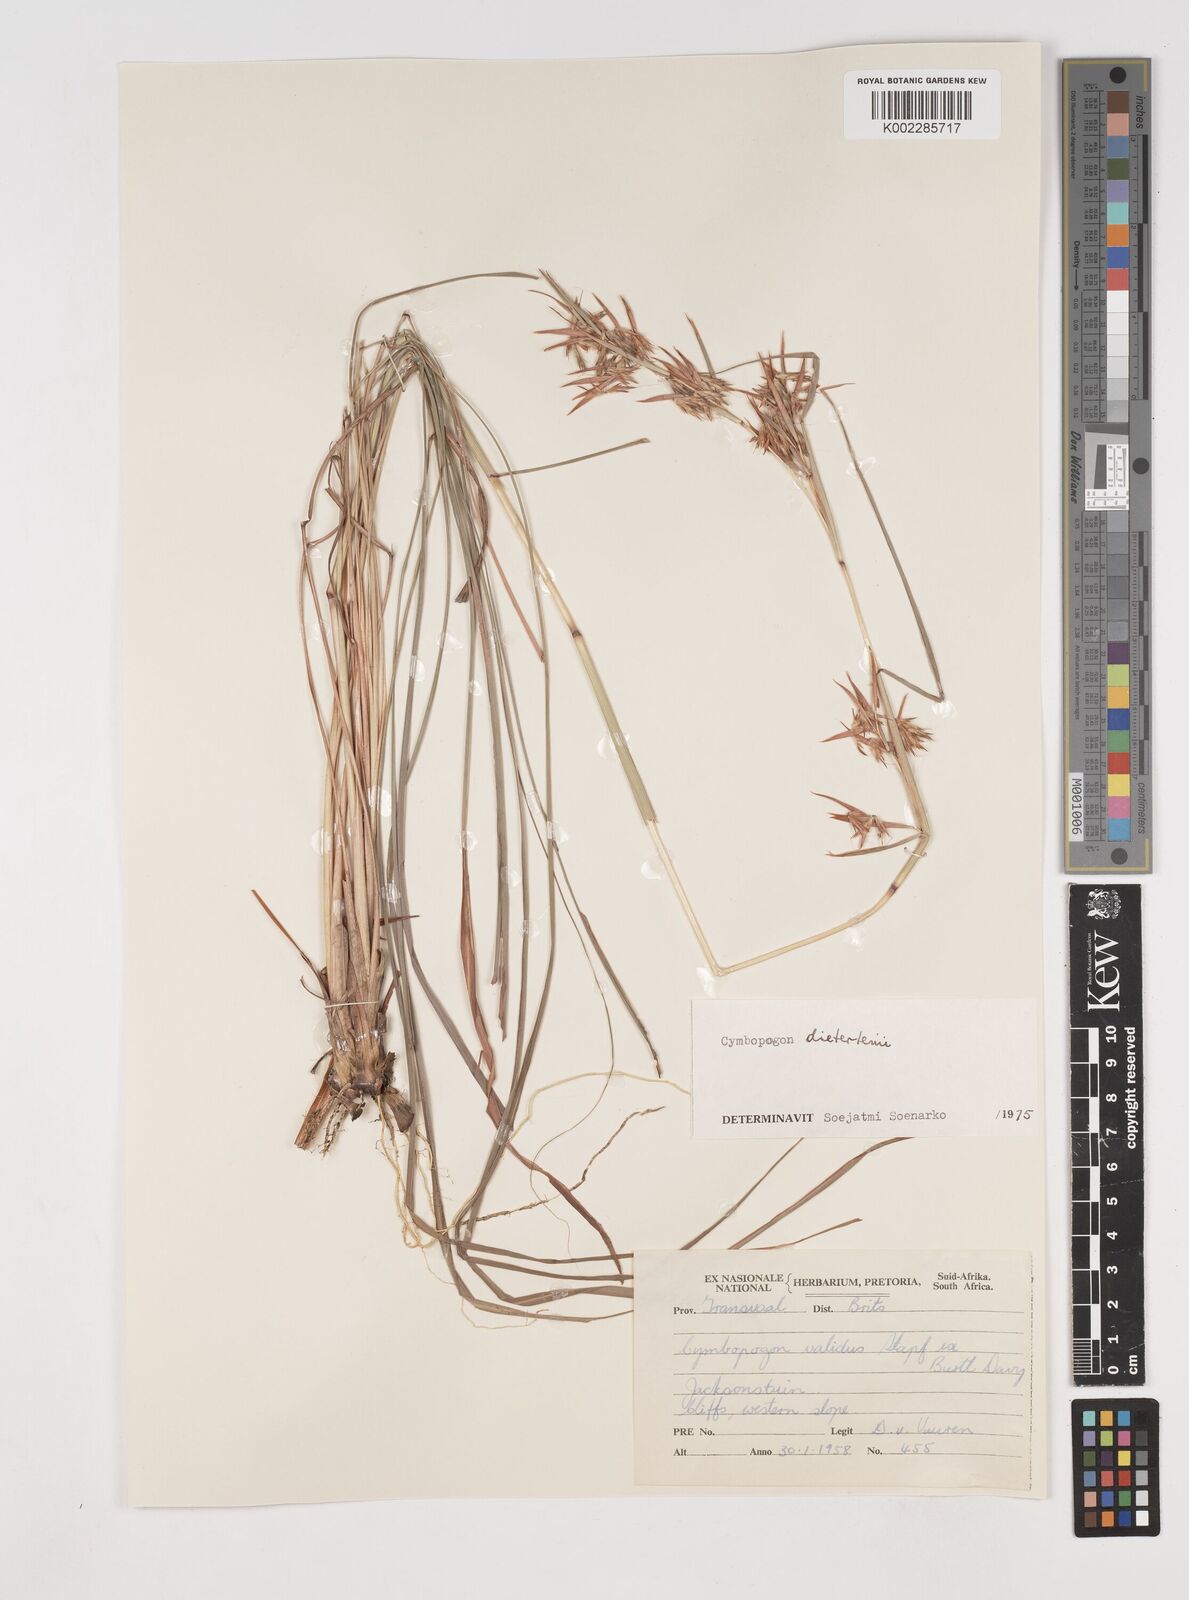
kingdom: Plantae
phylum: Tracheophyta
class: Liliopsida
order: Poales
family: Poaceae
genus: Cymbopogon
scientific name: Cymbopogon dieterlenii
